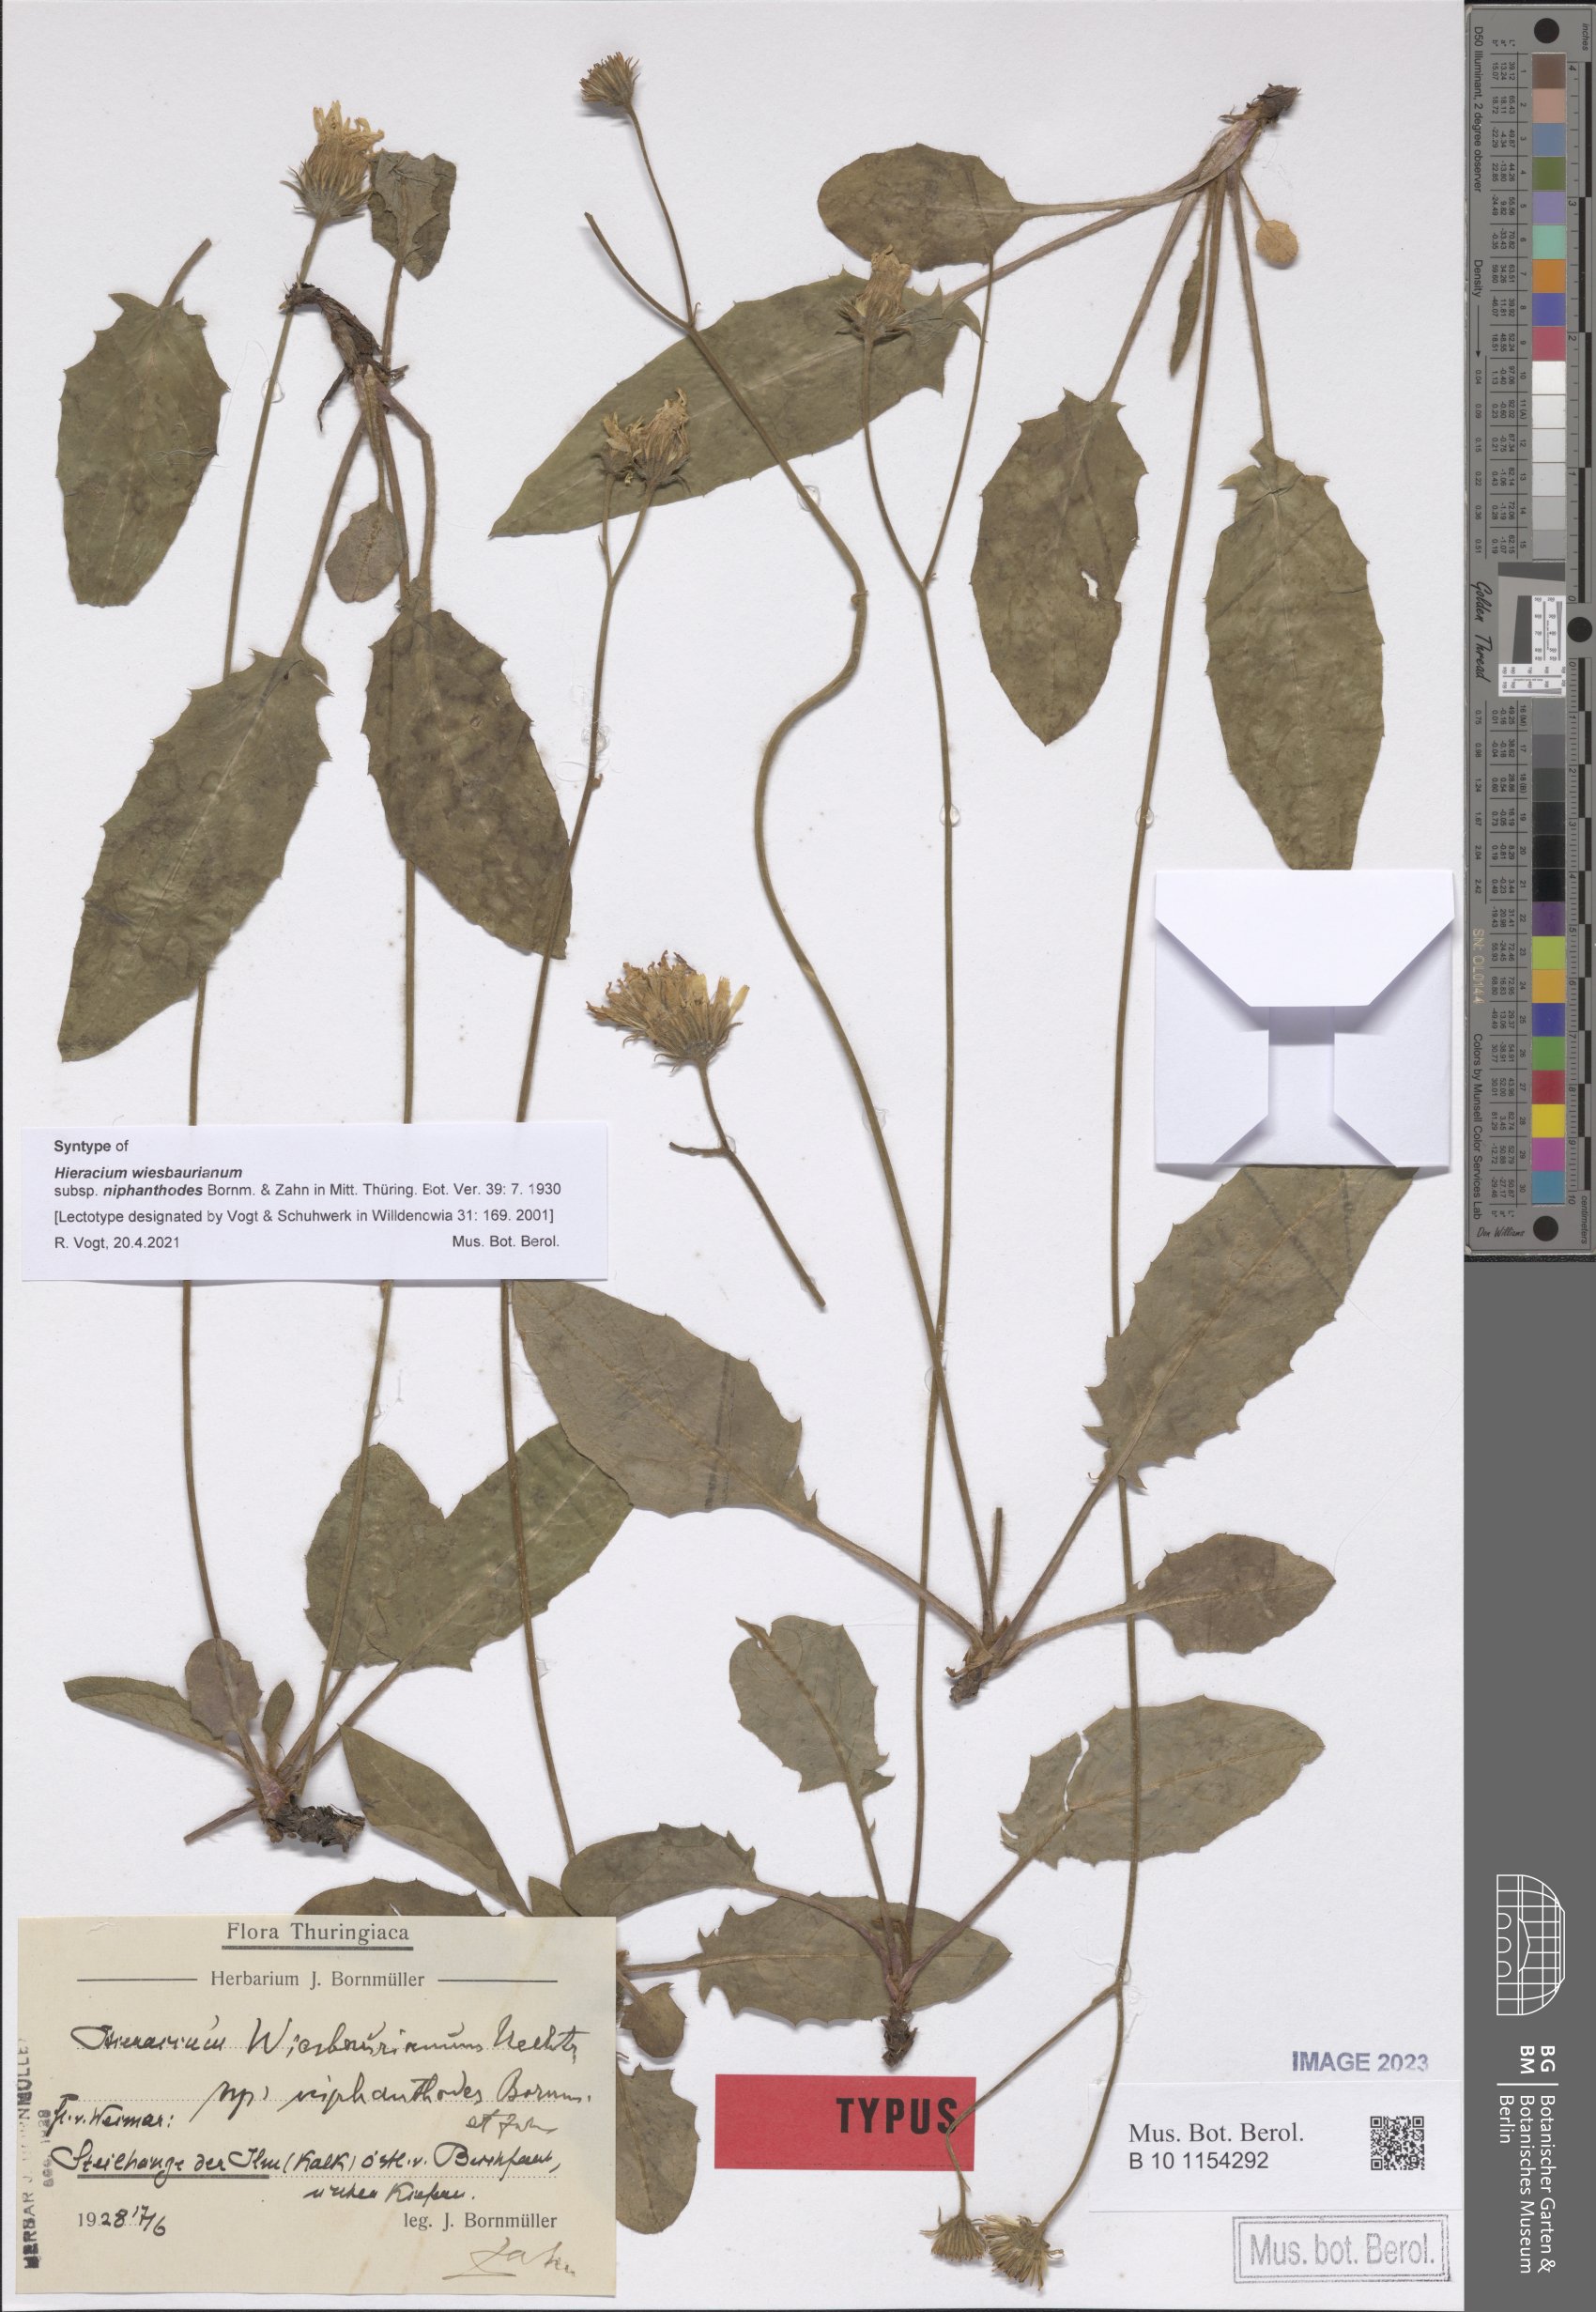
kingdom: Plantae
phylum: Tracheophyta
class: Magnoliopsida
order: Asterales
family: Asteraceae
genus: Hieracium
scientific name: Hieracium hypochoeroides
